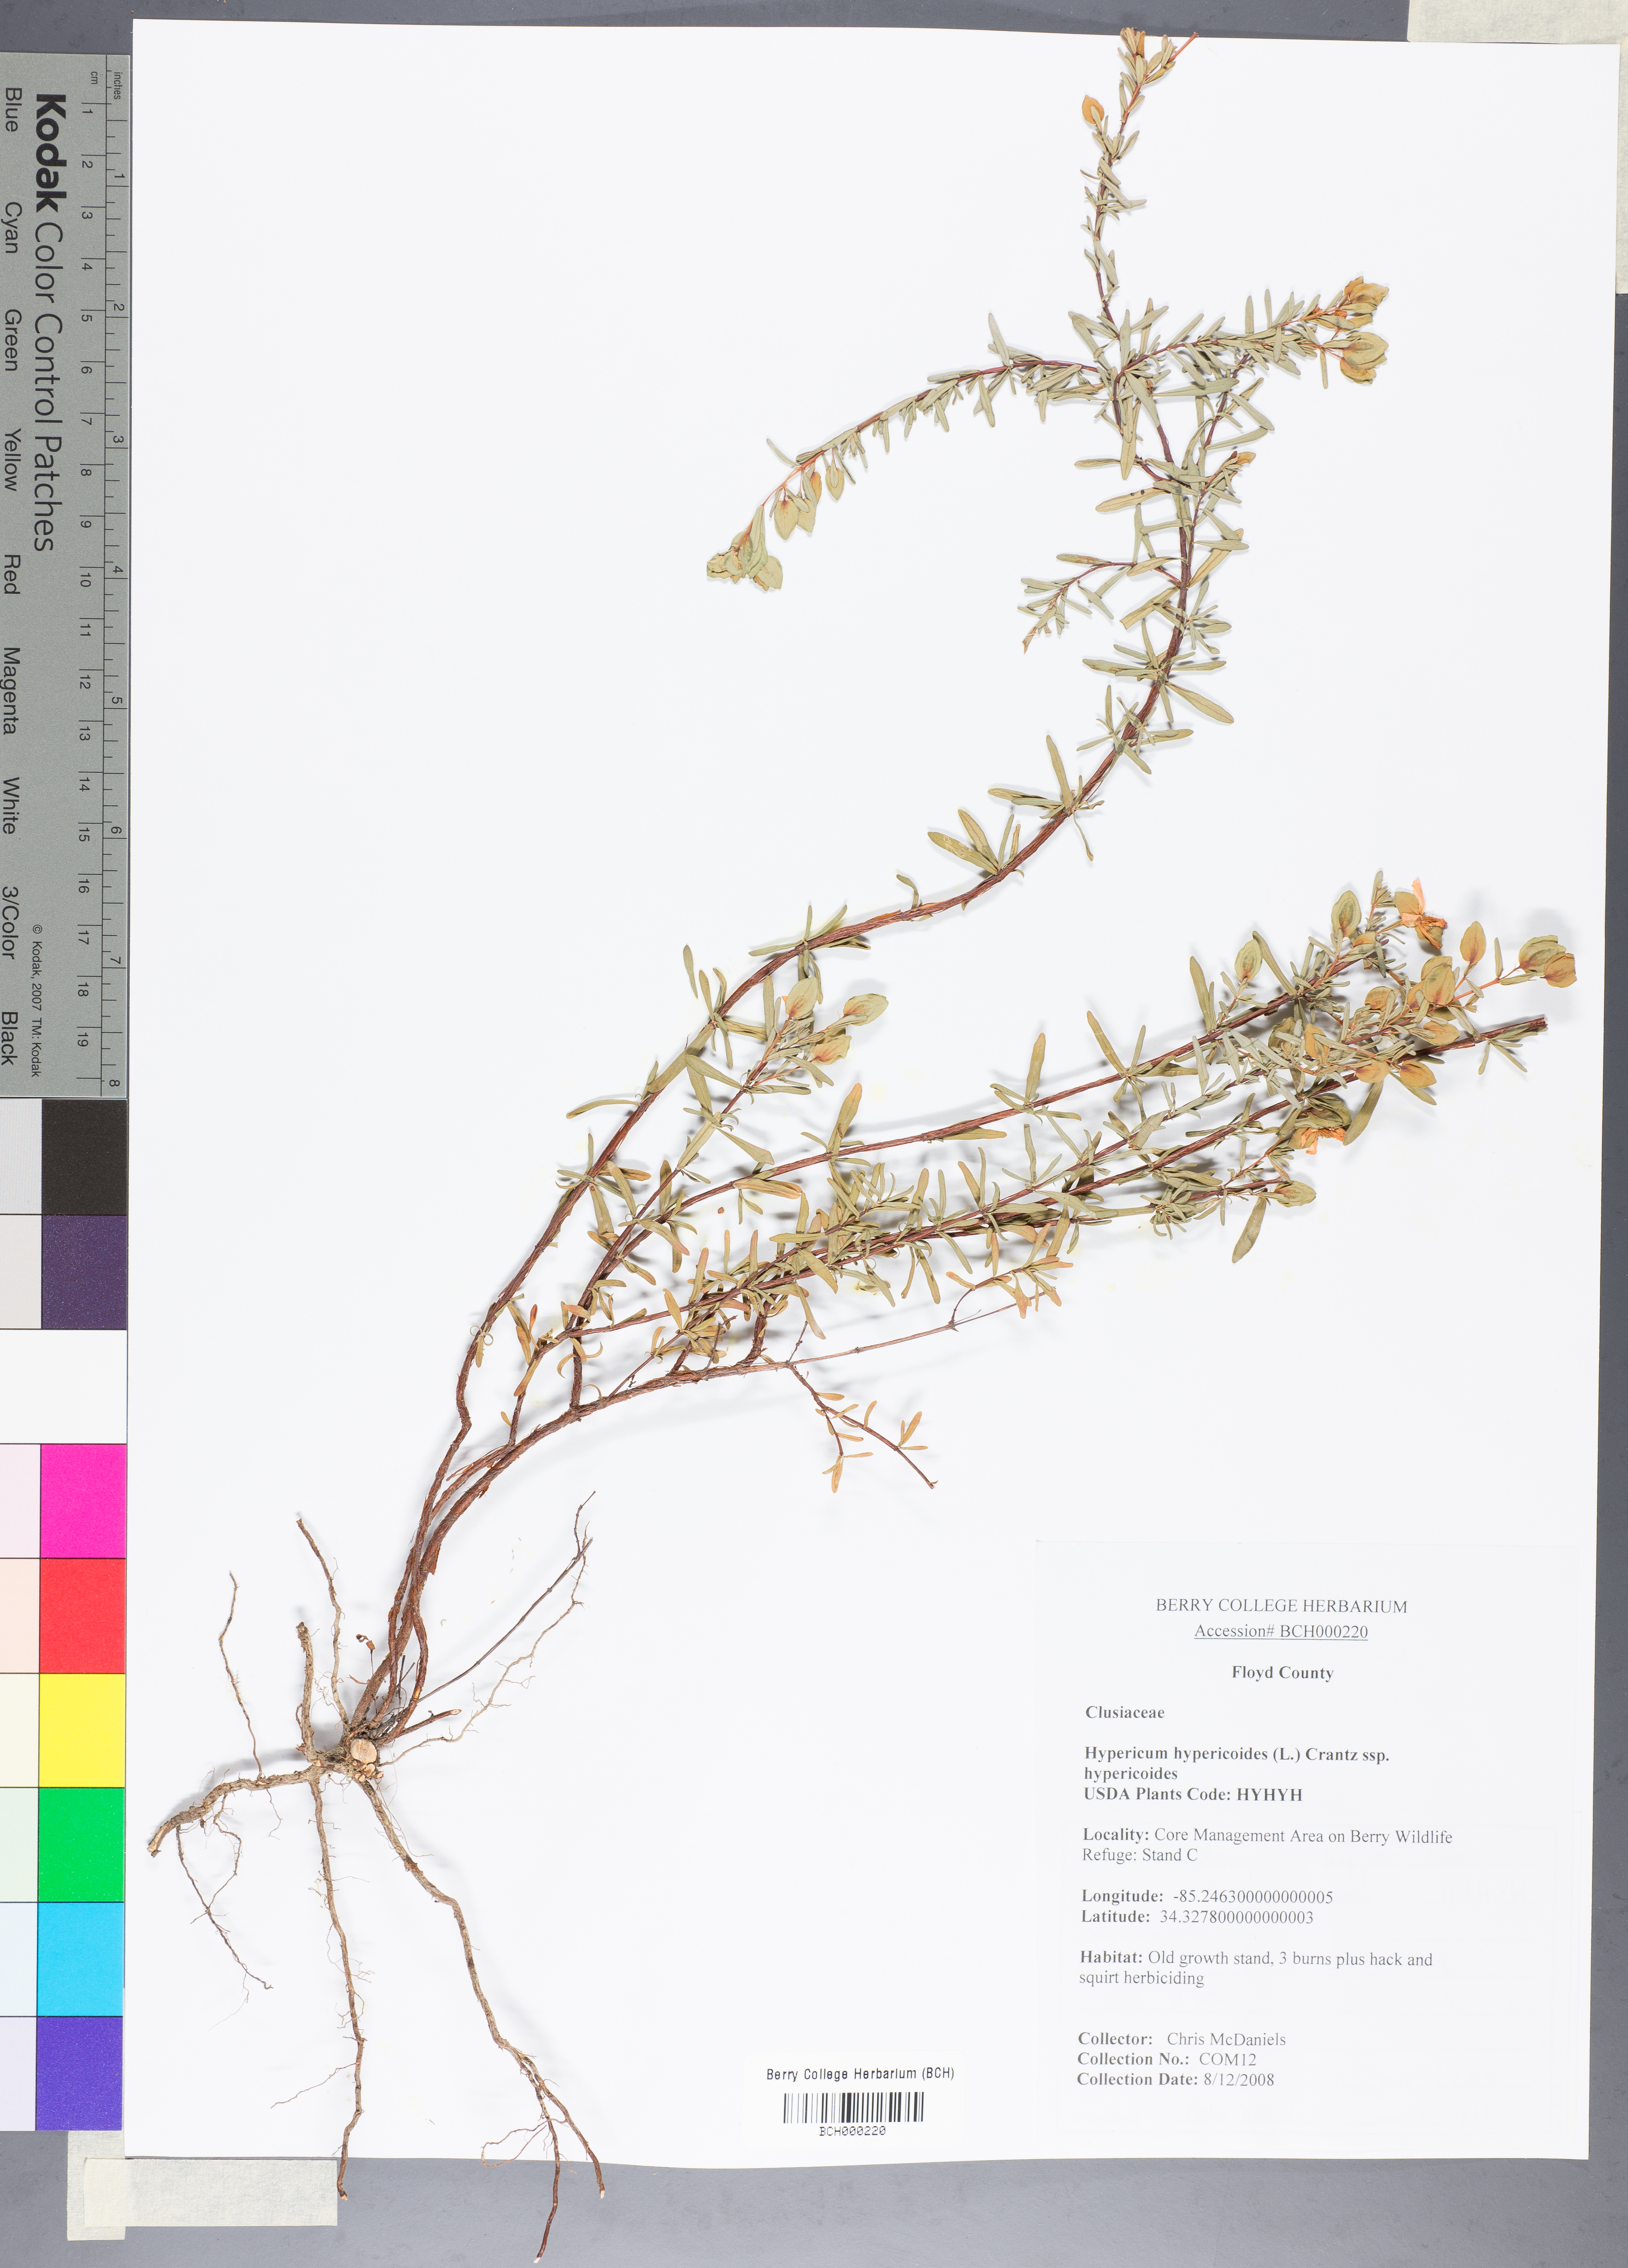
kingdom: Plantae
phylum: Tracheophyta
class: Magnoliopsida
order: Malpighiales
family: Hypericaceae
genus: Hypericum
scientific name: Hypericum hypericoides
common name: St. andrew's cross
